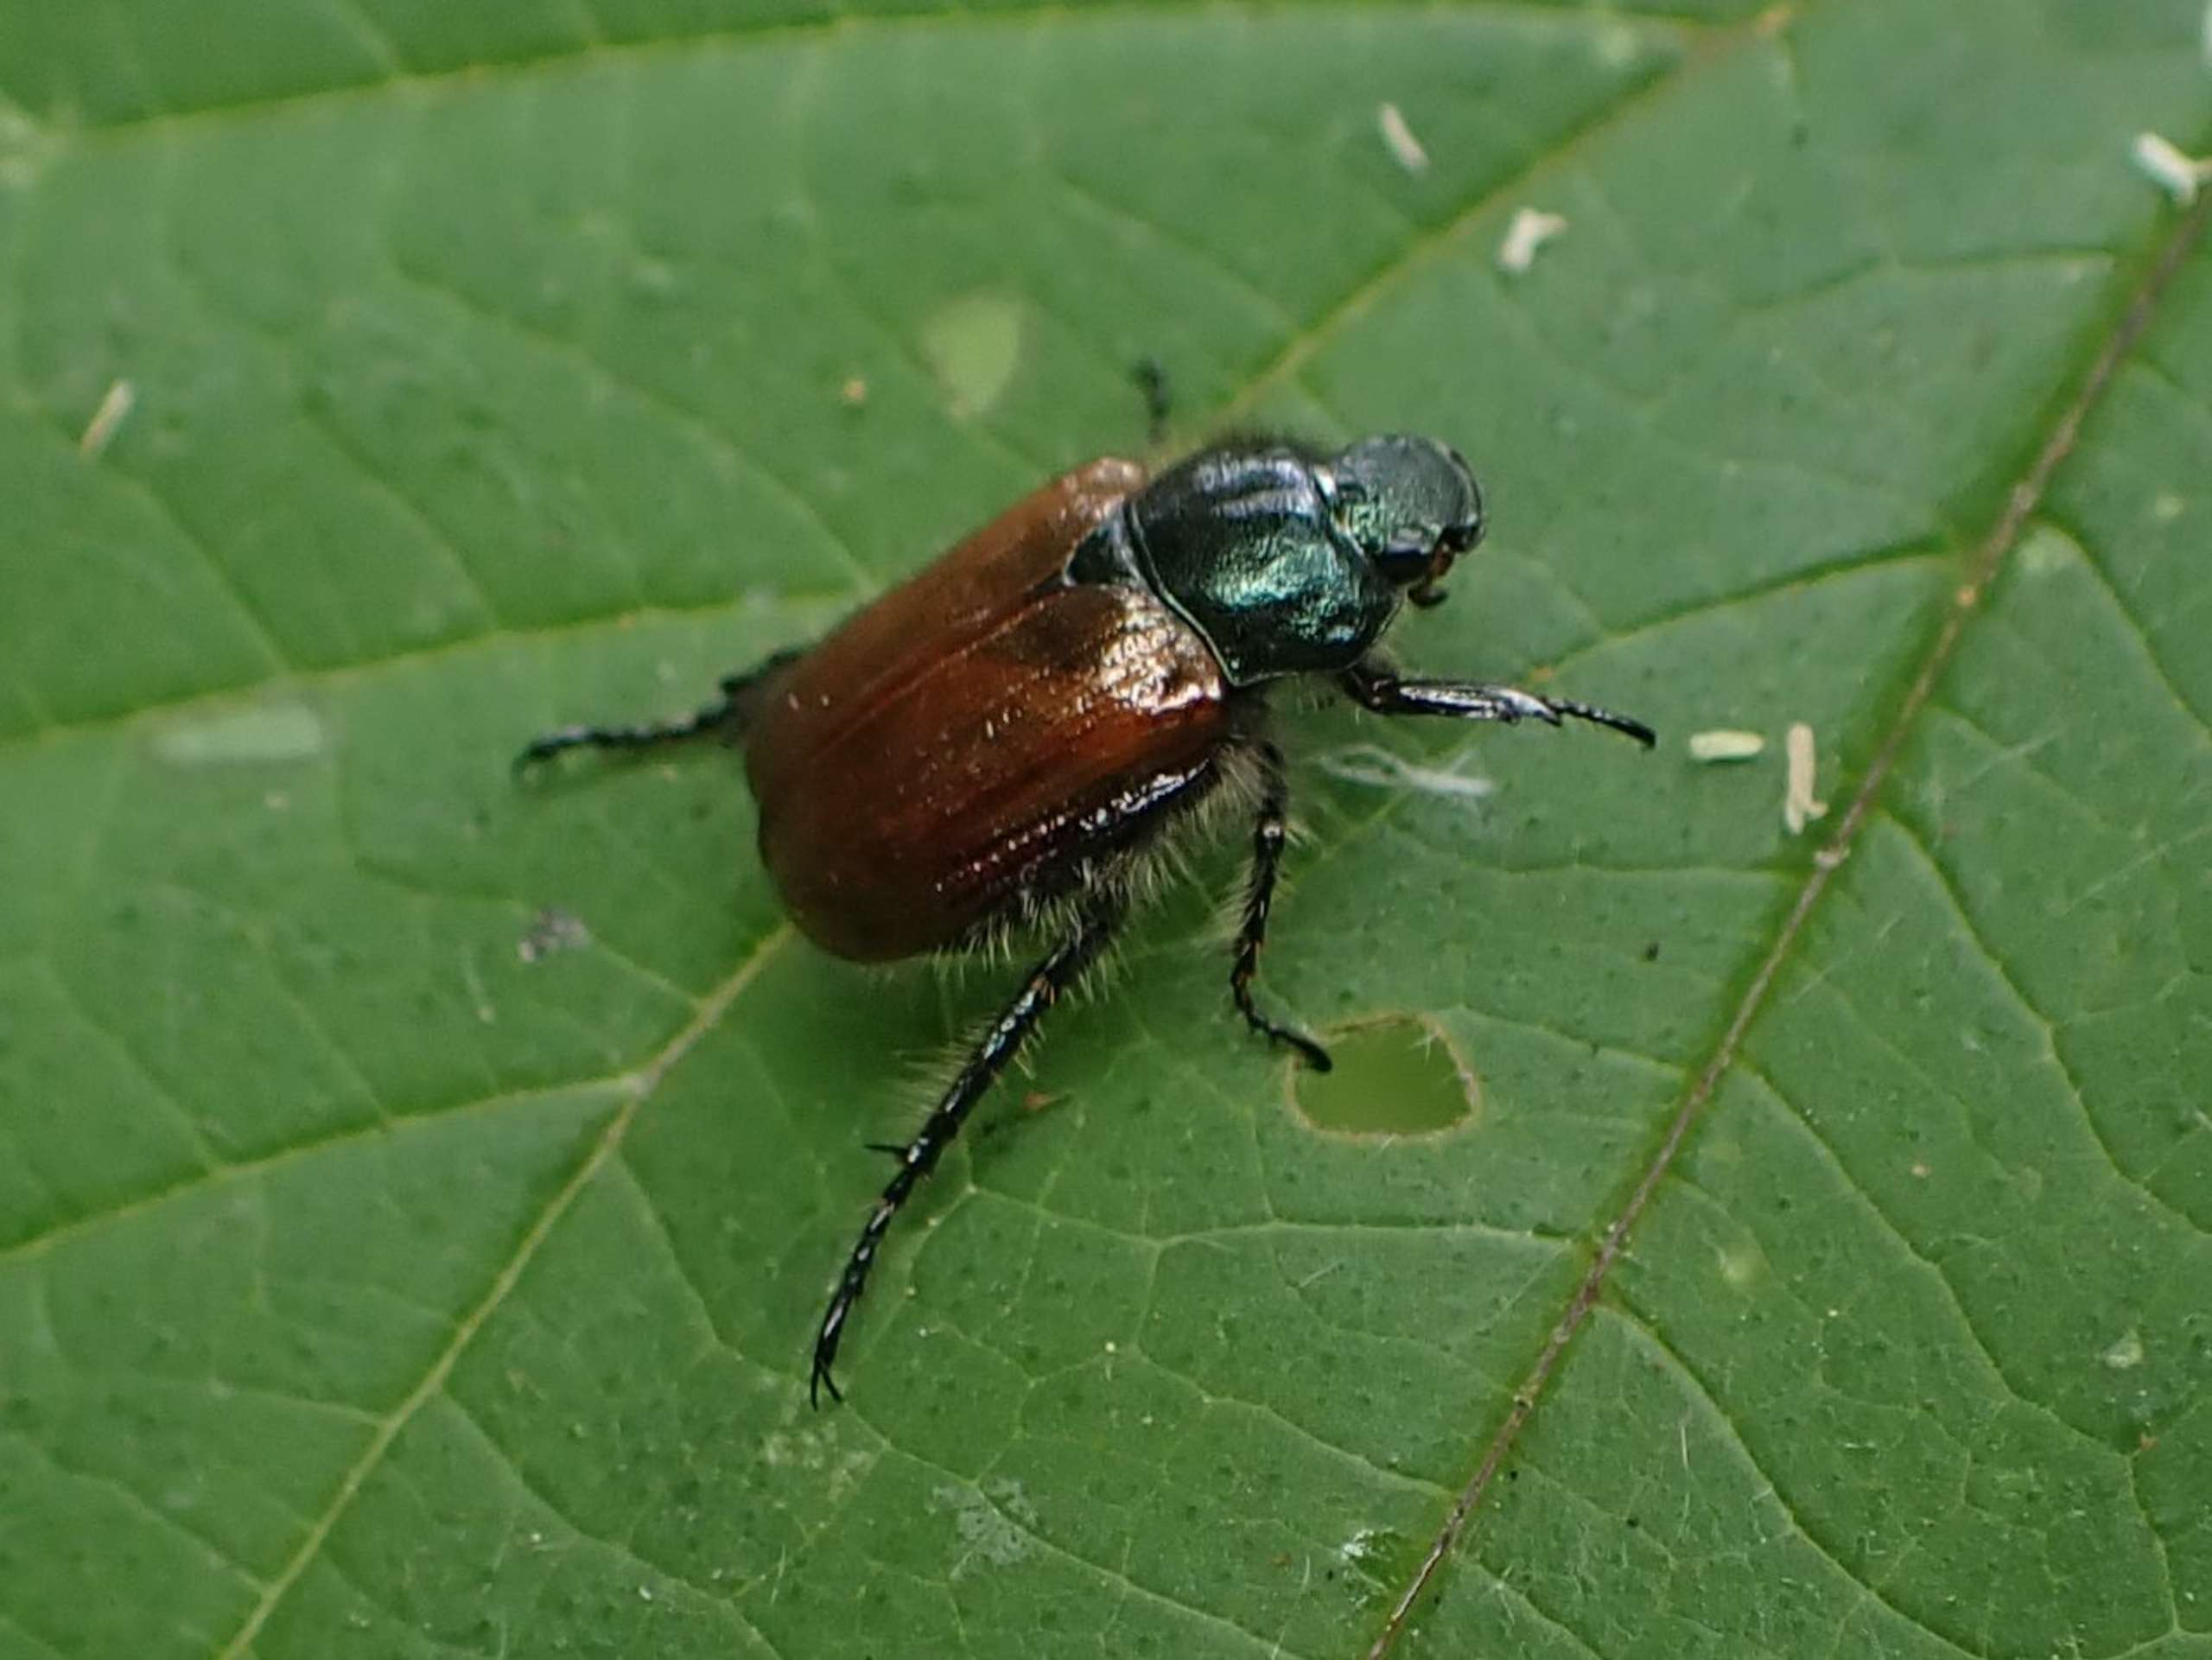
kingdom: Animalia
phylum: Arthropoda
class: Insecta
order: Coleoptera
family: Scarabaeidae
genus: Phyllopertha
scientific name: Phyllopertha horticola
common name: Gåsebille
